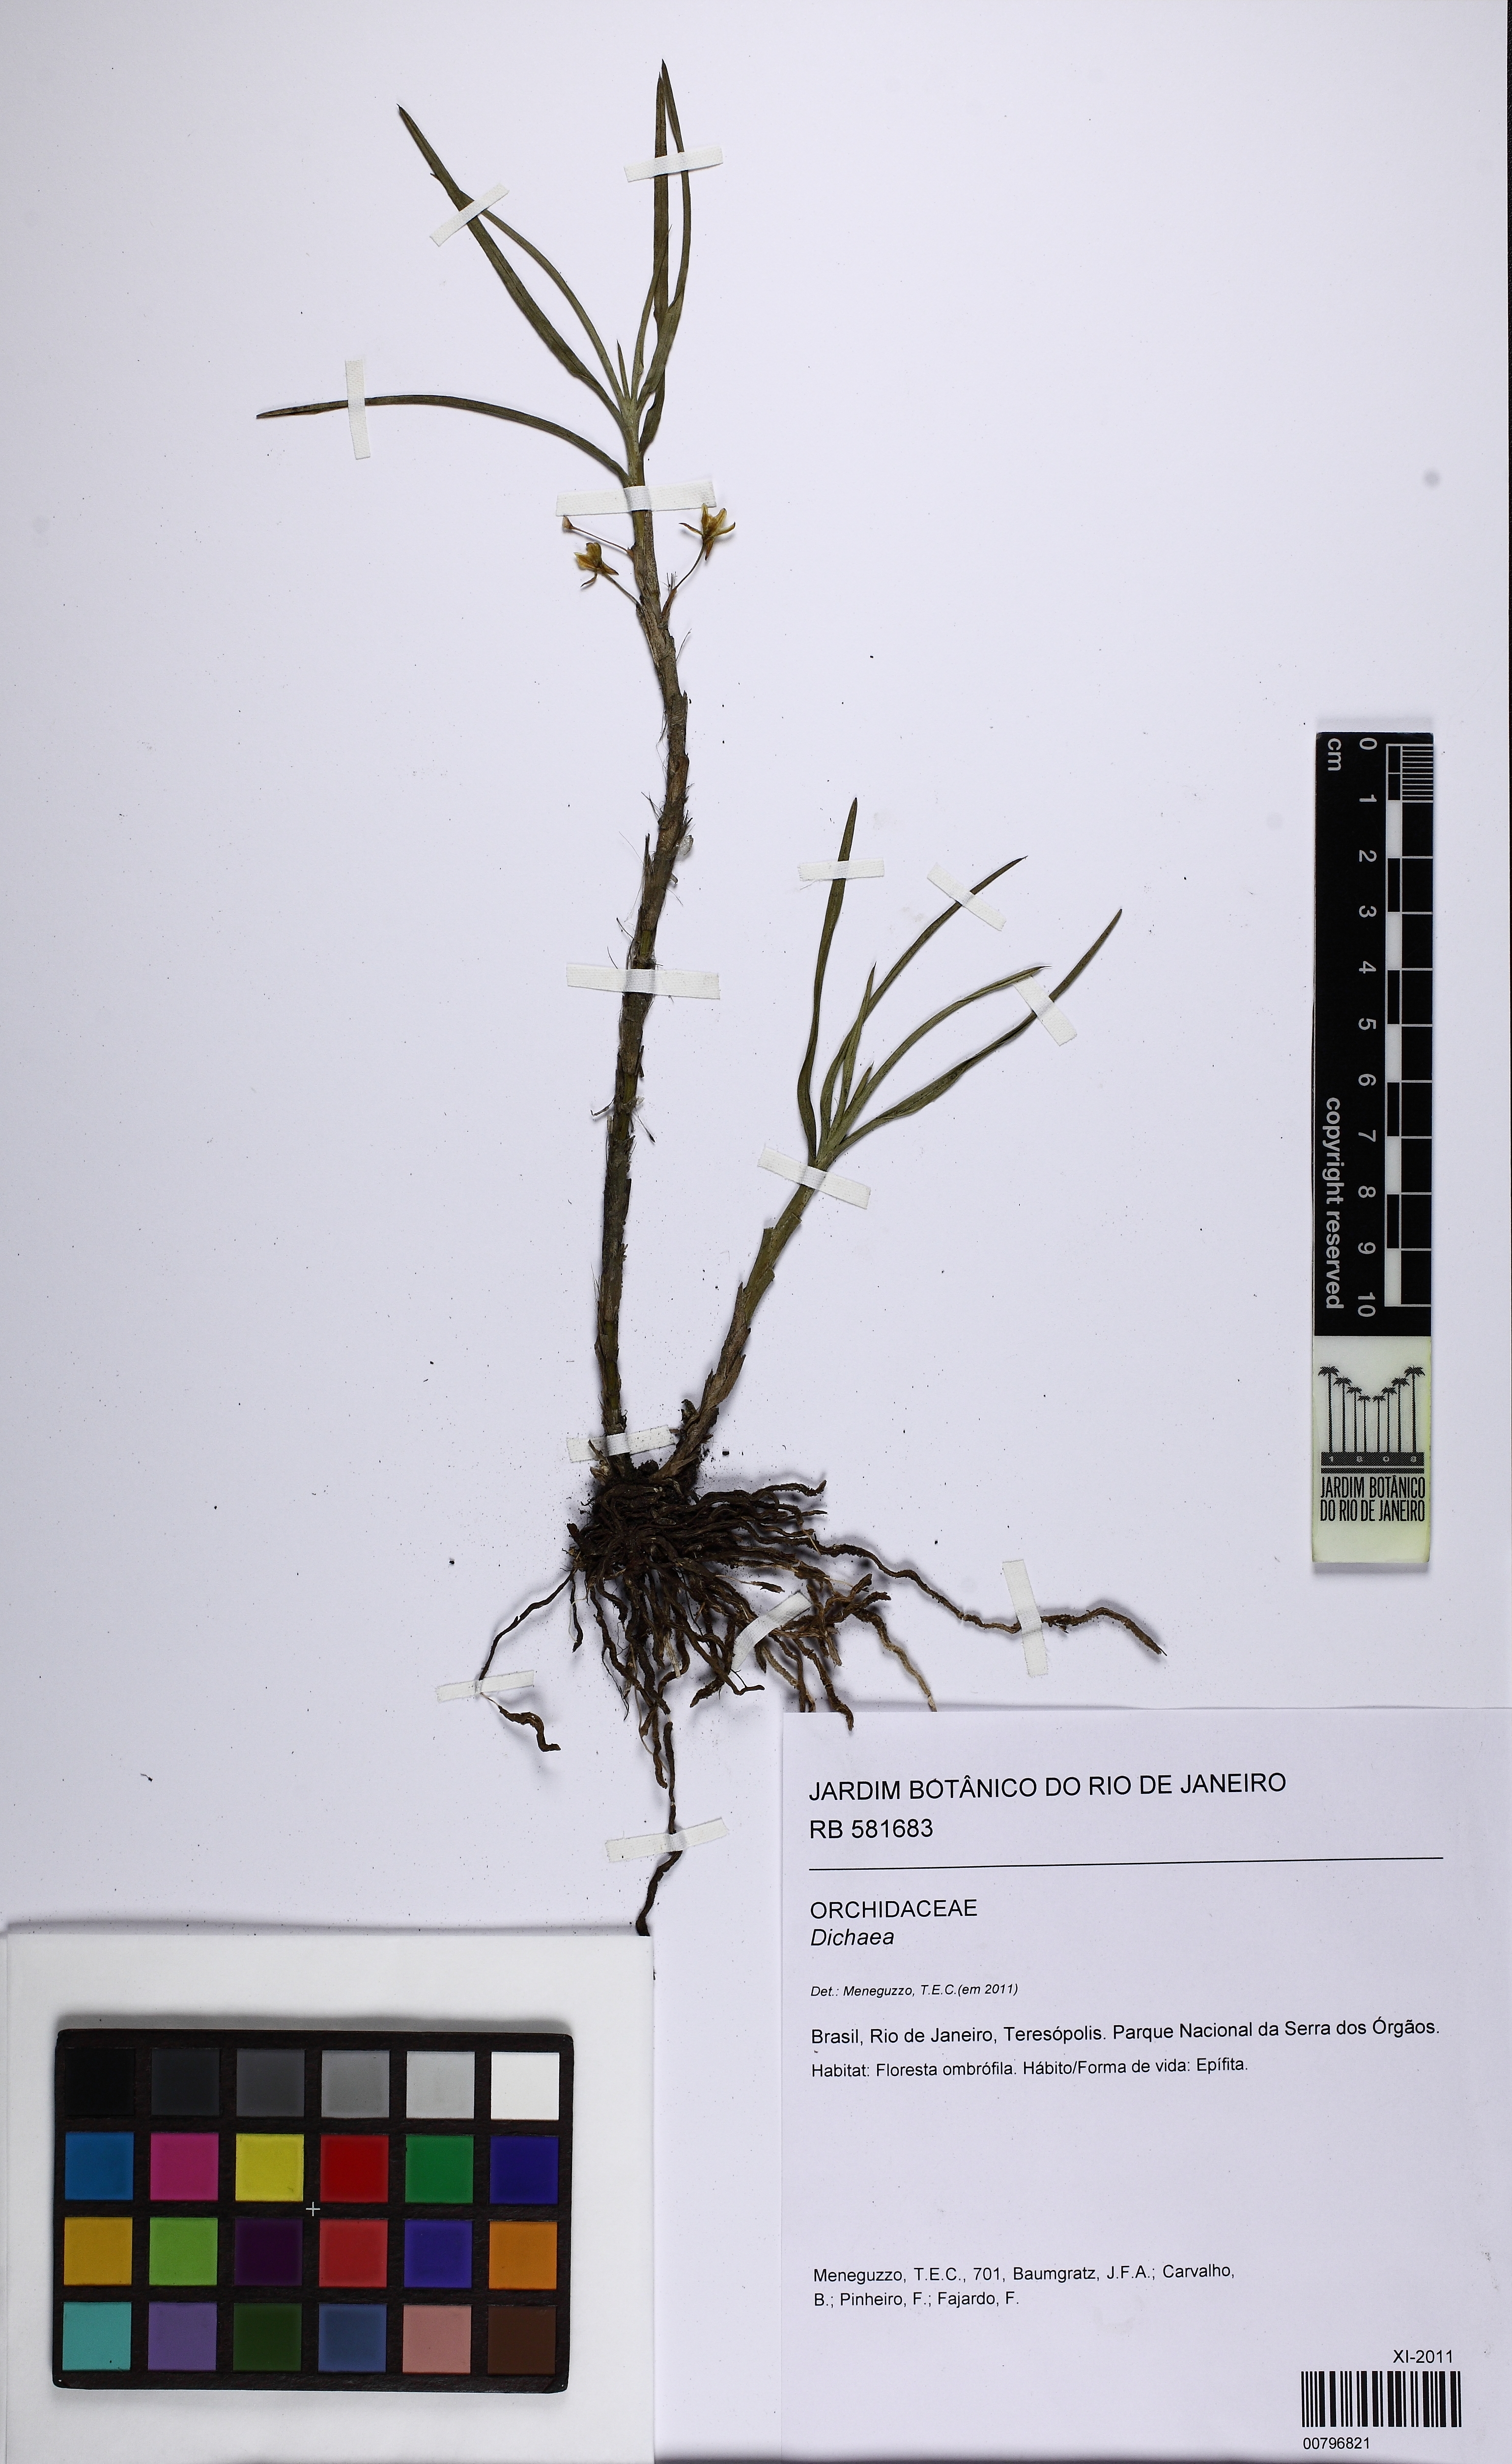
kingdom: Plantae
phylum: Tracheophyta
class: Liliopsida
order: Asparagales
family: Orchidaceae
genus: Dichaea
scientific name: Dichaea
